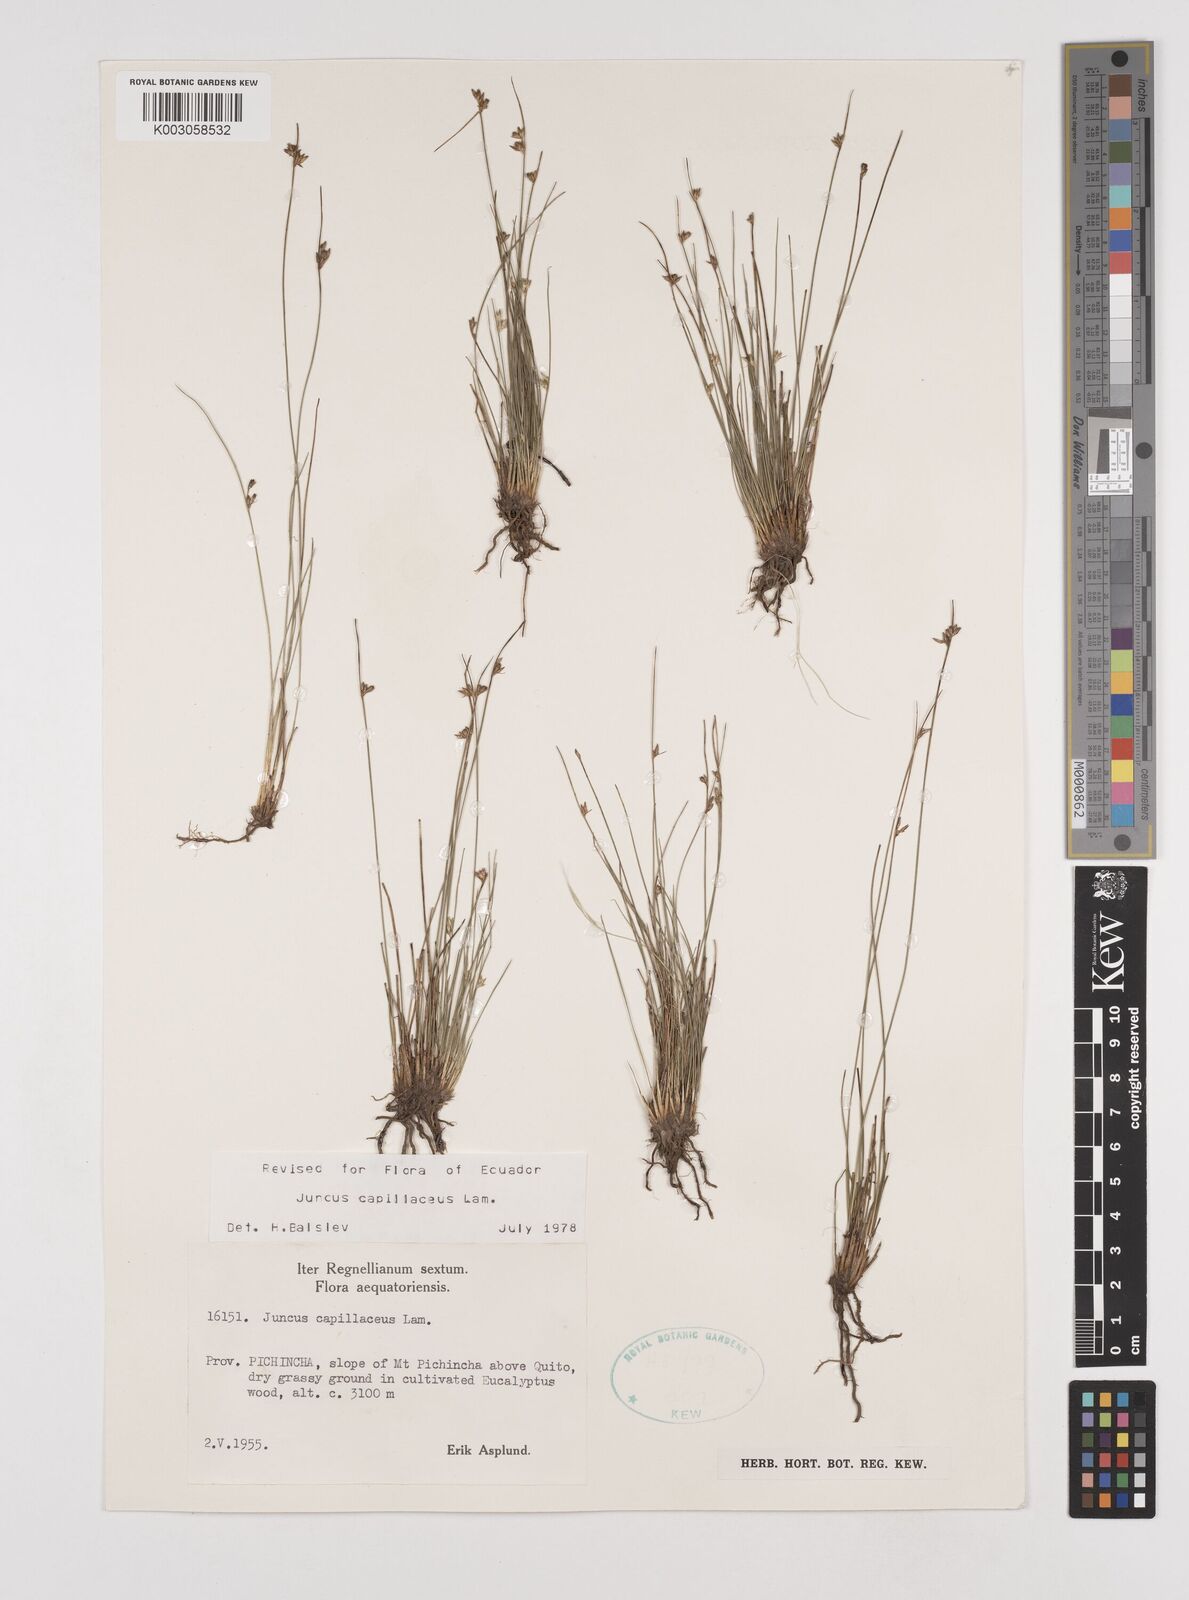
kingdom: Plantae
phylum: Tracheophyta
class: Liliopsida
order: Poales
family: Juncaceae
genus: Juncus
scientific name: Juncus capillaceus
